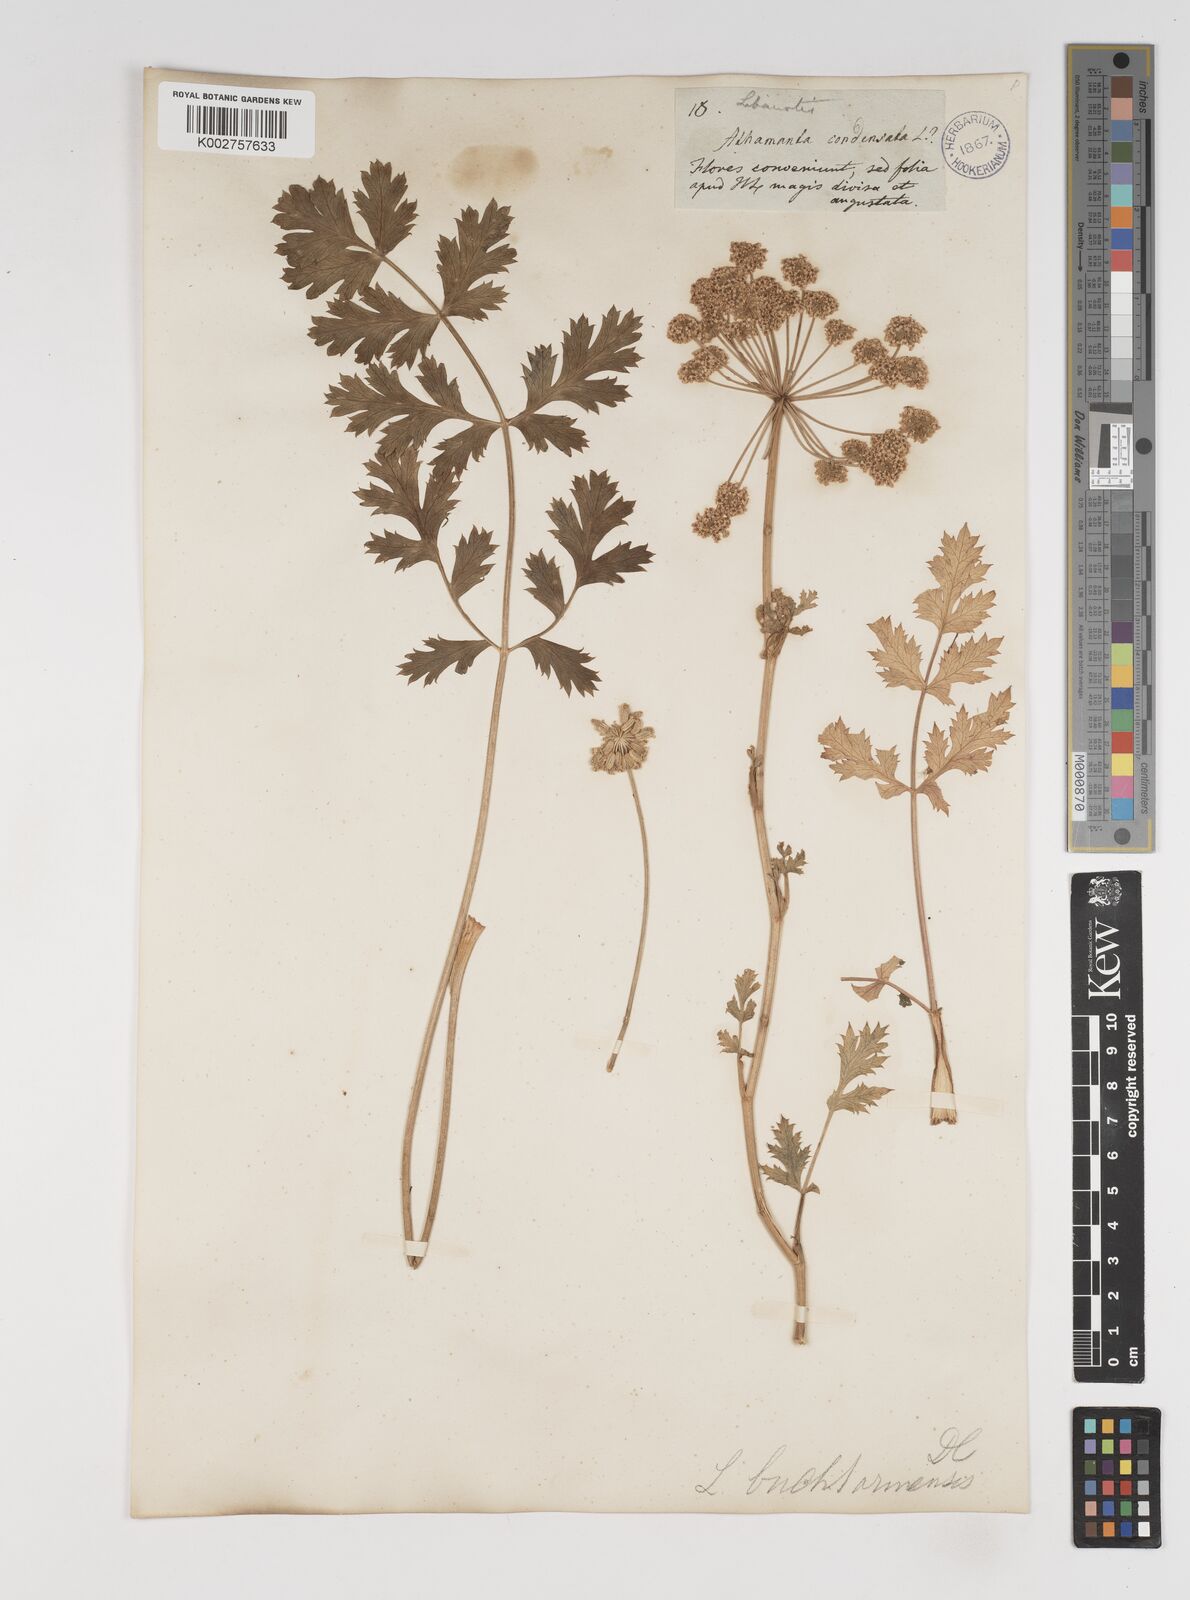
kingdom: Plantae
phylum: Tracheophyta
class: Magnoliopsida
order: Apiales
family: Apiaceae
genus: Seseli
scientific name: Seseli buchtormense
